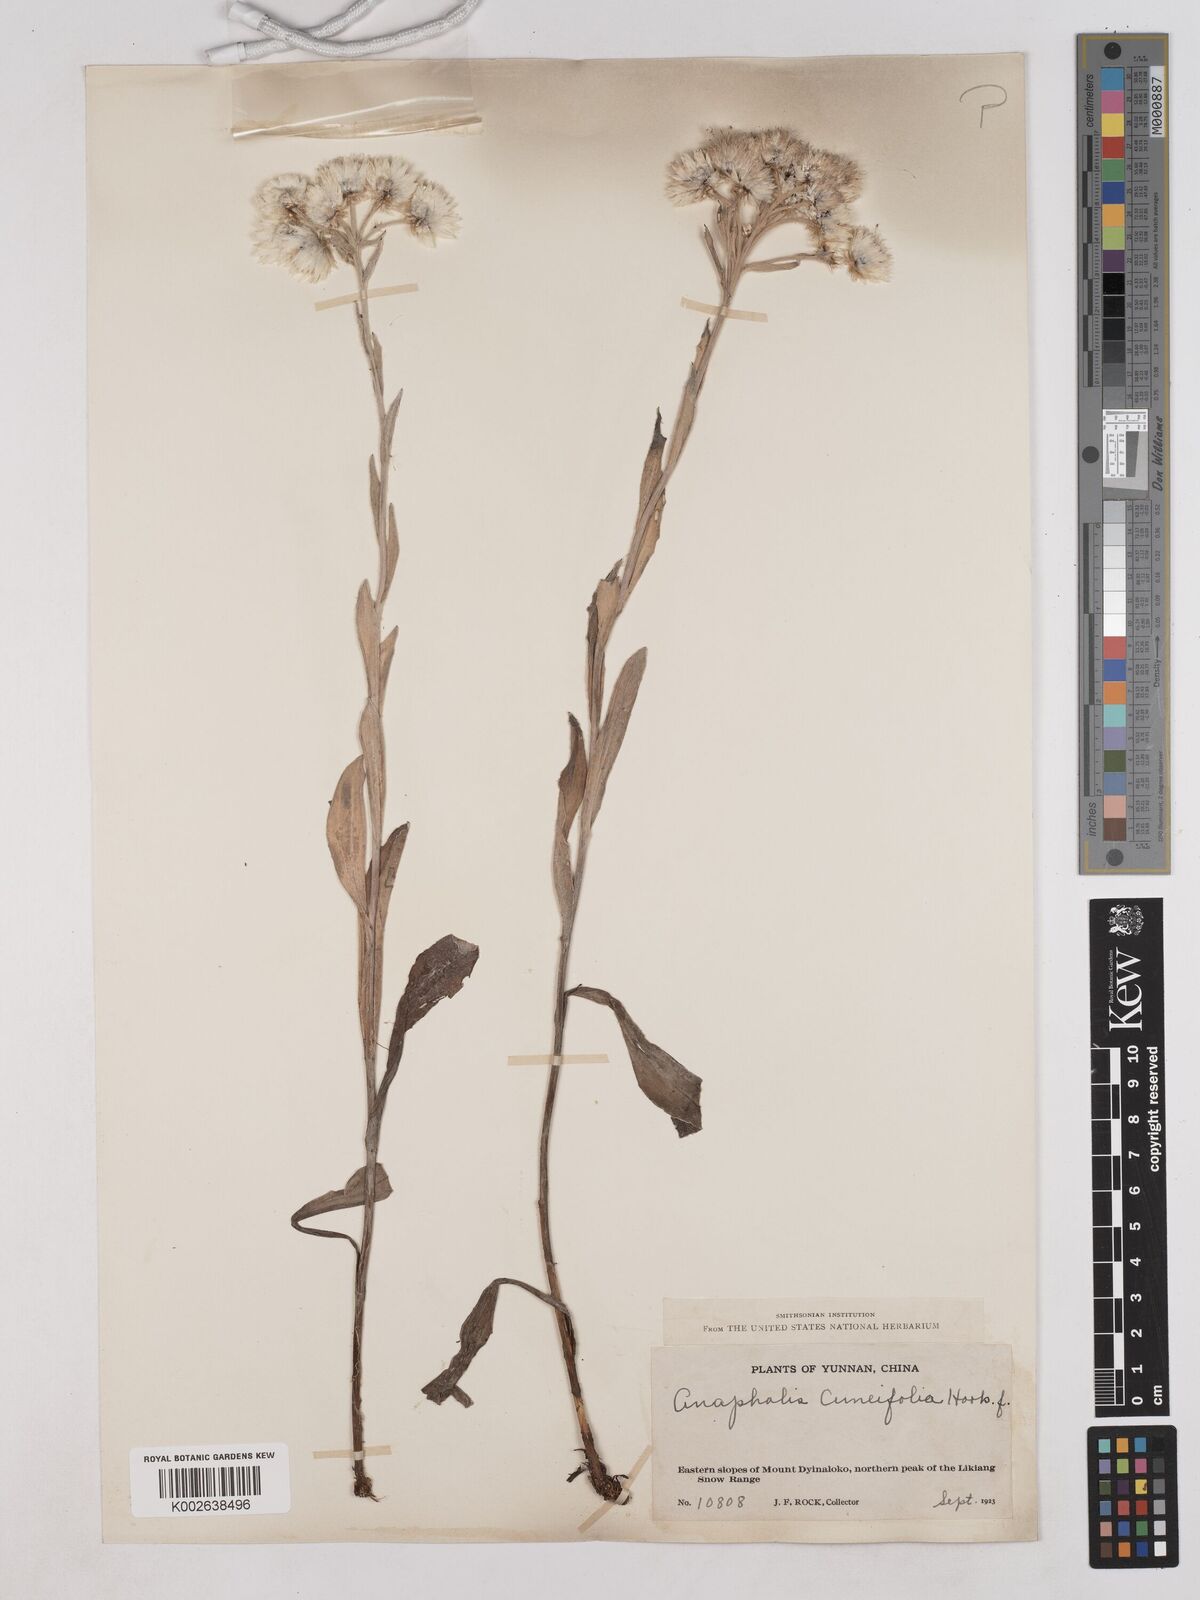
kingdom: Plantae
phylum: Tracheophyta
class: Magnoliopsida
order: Asterales
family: Asteraceae
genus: Anaphalis
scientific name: Anaphalis nepalensis
